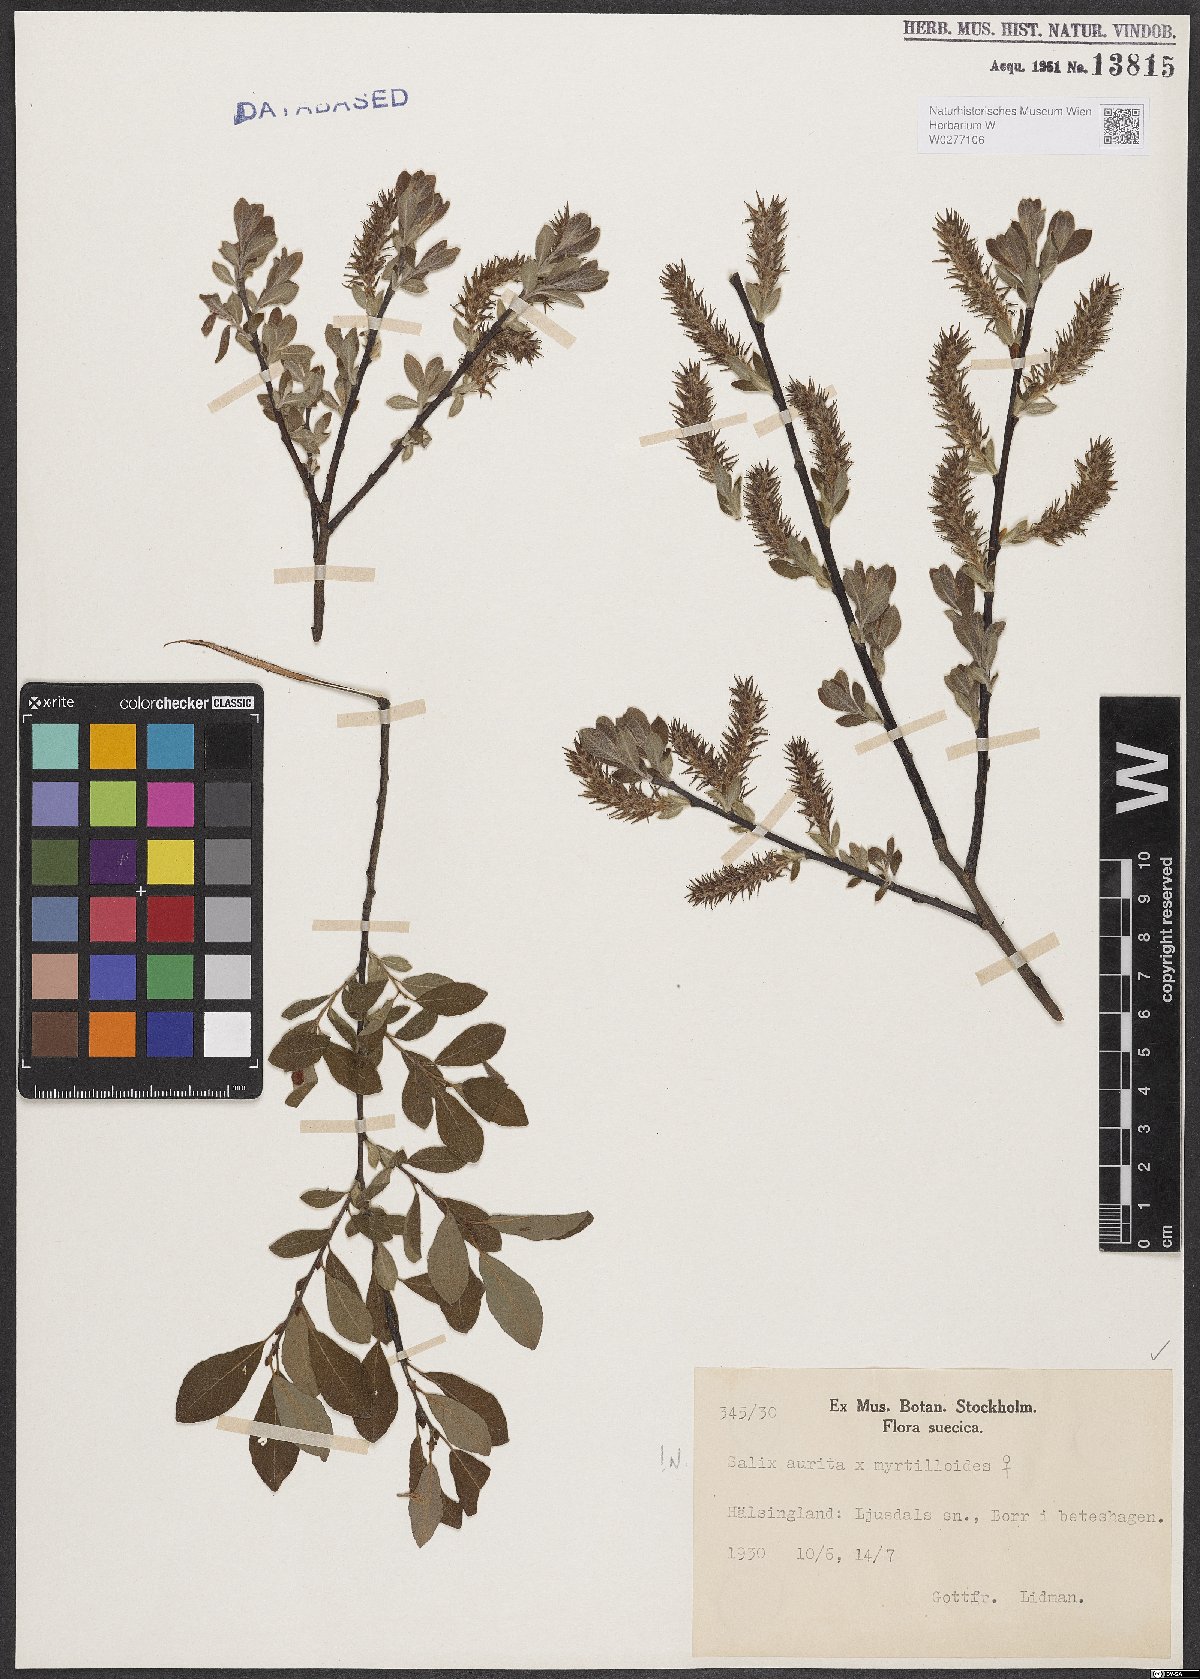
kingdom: Plantae
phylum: Tracheophyta
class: Magnoliopsida
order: Malpighiales
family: Salicaceae
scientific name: Salicaceae
